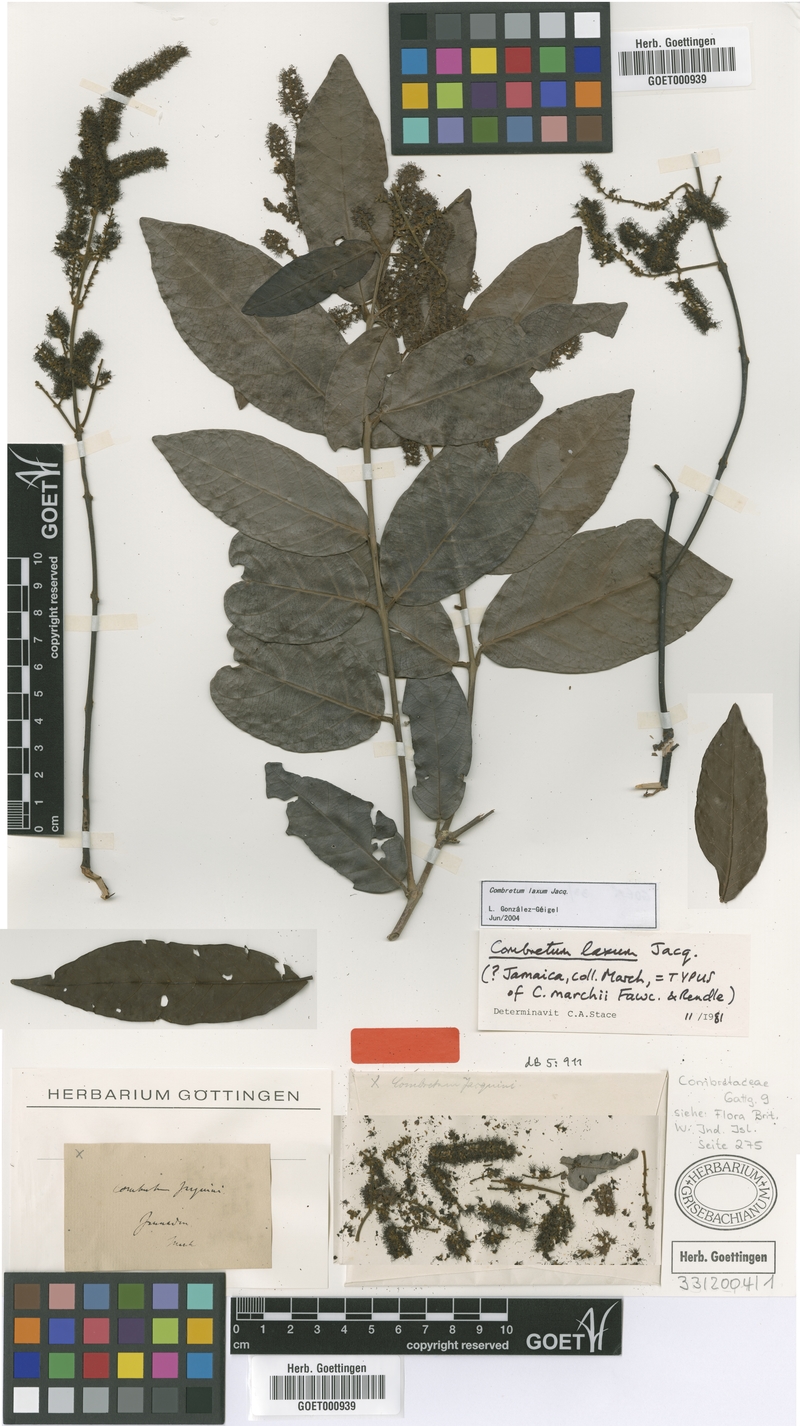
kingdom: Plantae
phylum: Tracheophyta
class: Magnoliopsida
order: Myrtales
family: Combretaceae
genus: Combretum
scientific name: Combretum laxum
